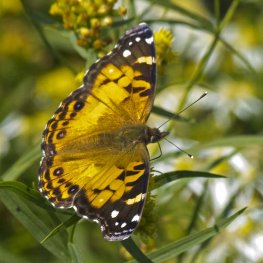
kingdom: Animalia
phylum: Arthropoda
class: Insecta
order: Lepidoptera
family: Nymphalidae
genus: Vanessa
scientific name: Vanessa virginiensis
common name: American Lady
